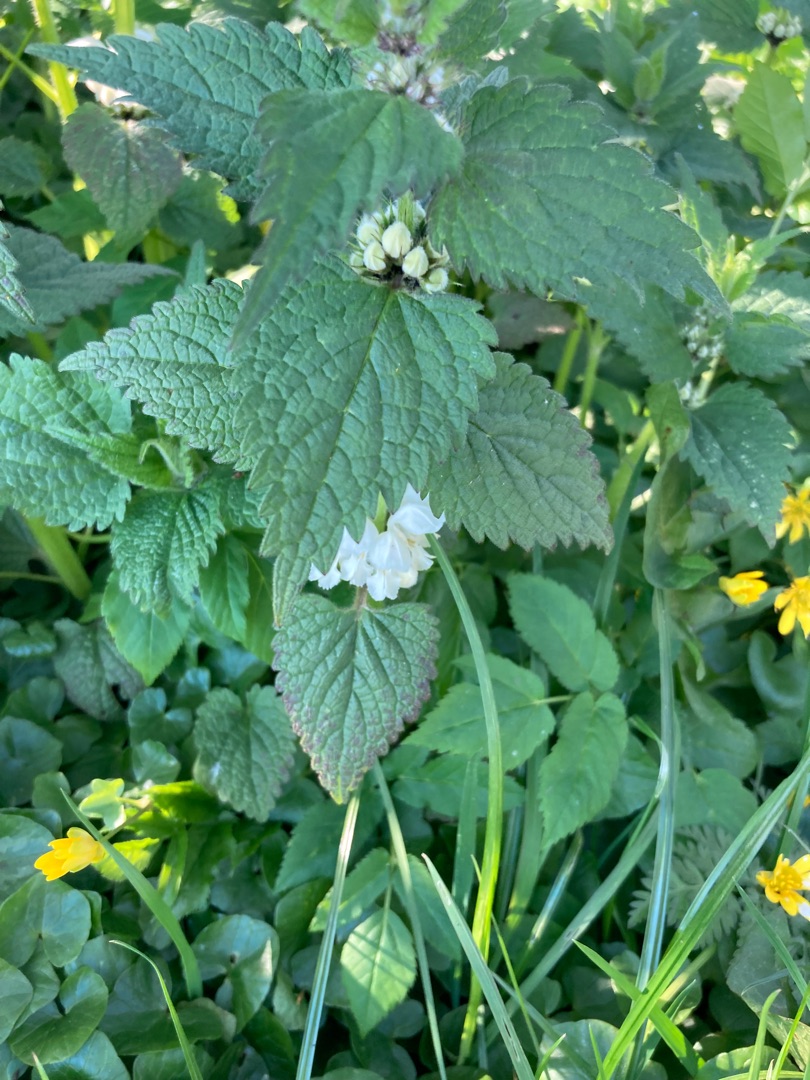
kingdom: Plantae
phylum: Tracheophyta
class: Magnoliopsida
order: Lamiales
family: Lamiaceae
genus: Lamium
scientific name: Lamium album
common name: Døvnælde
